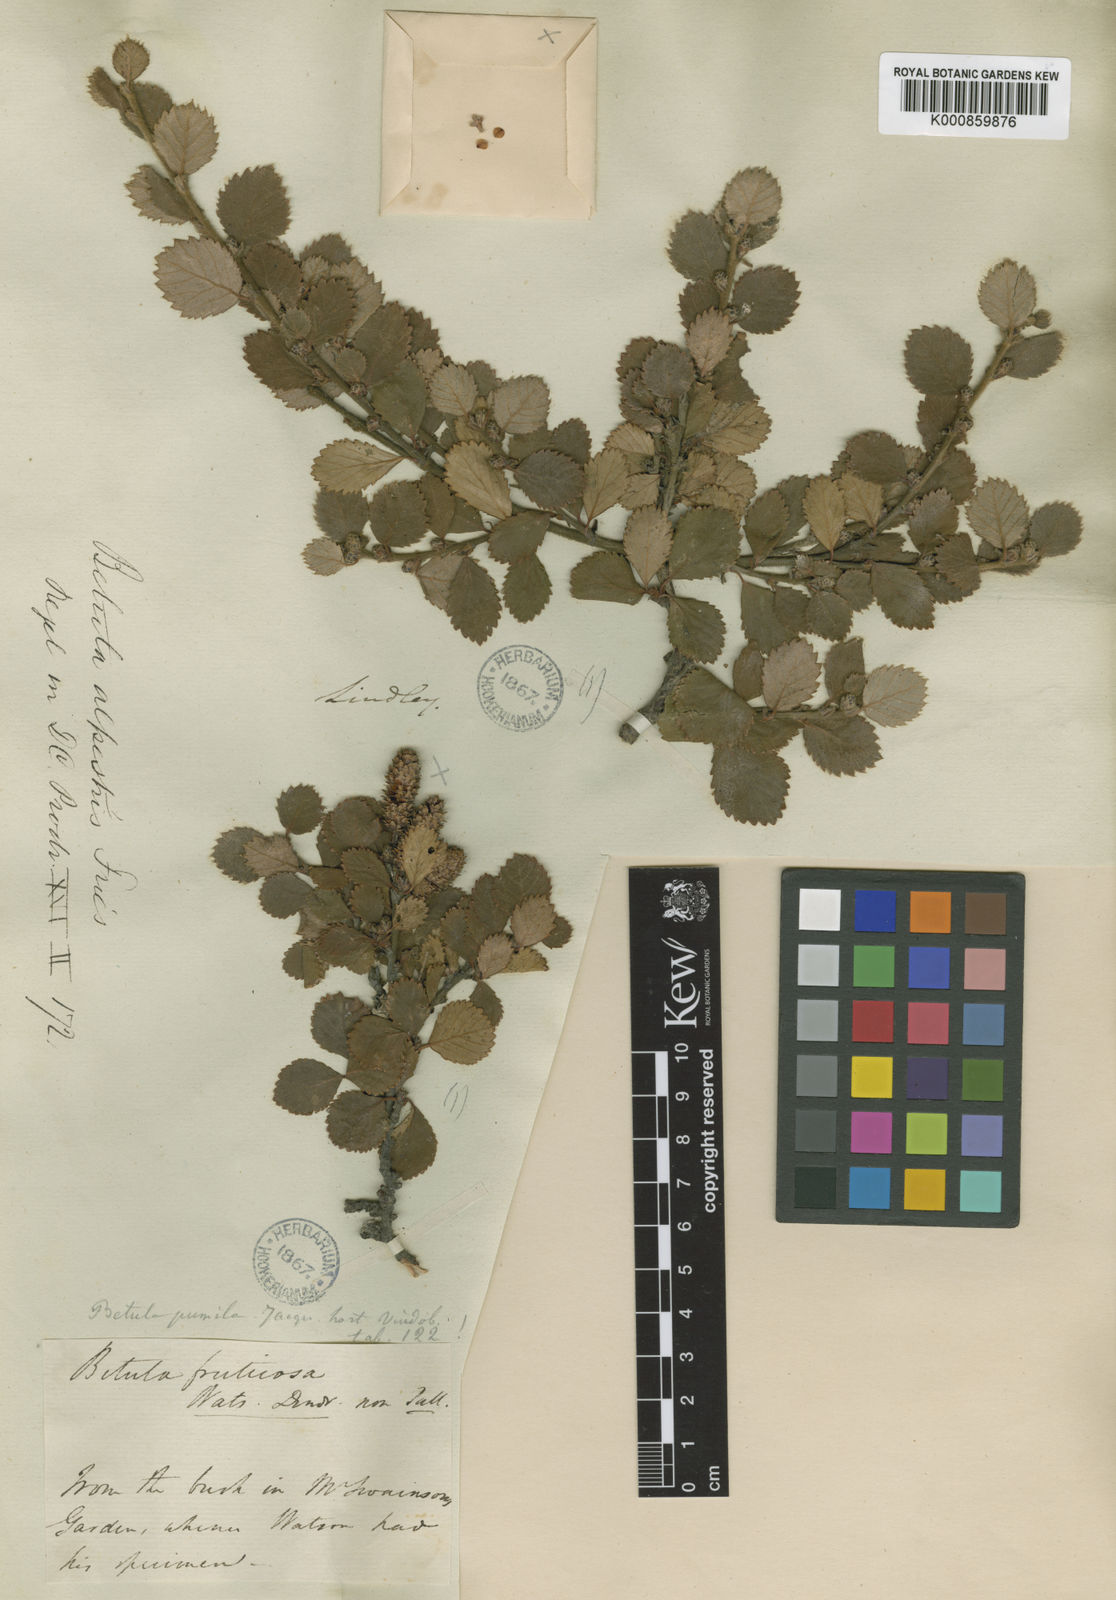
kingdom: Plantae
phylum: Tracheophyta
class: Magnoliopsida
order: Fagales
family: Betulaceae
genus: Betula
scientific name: Betula
